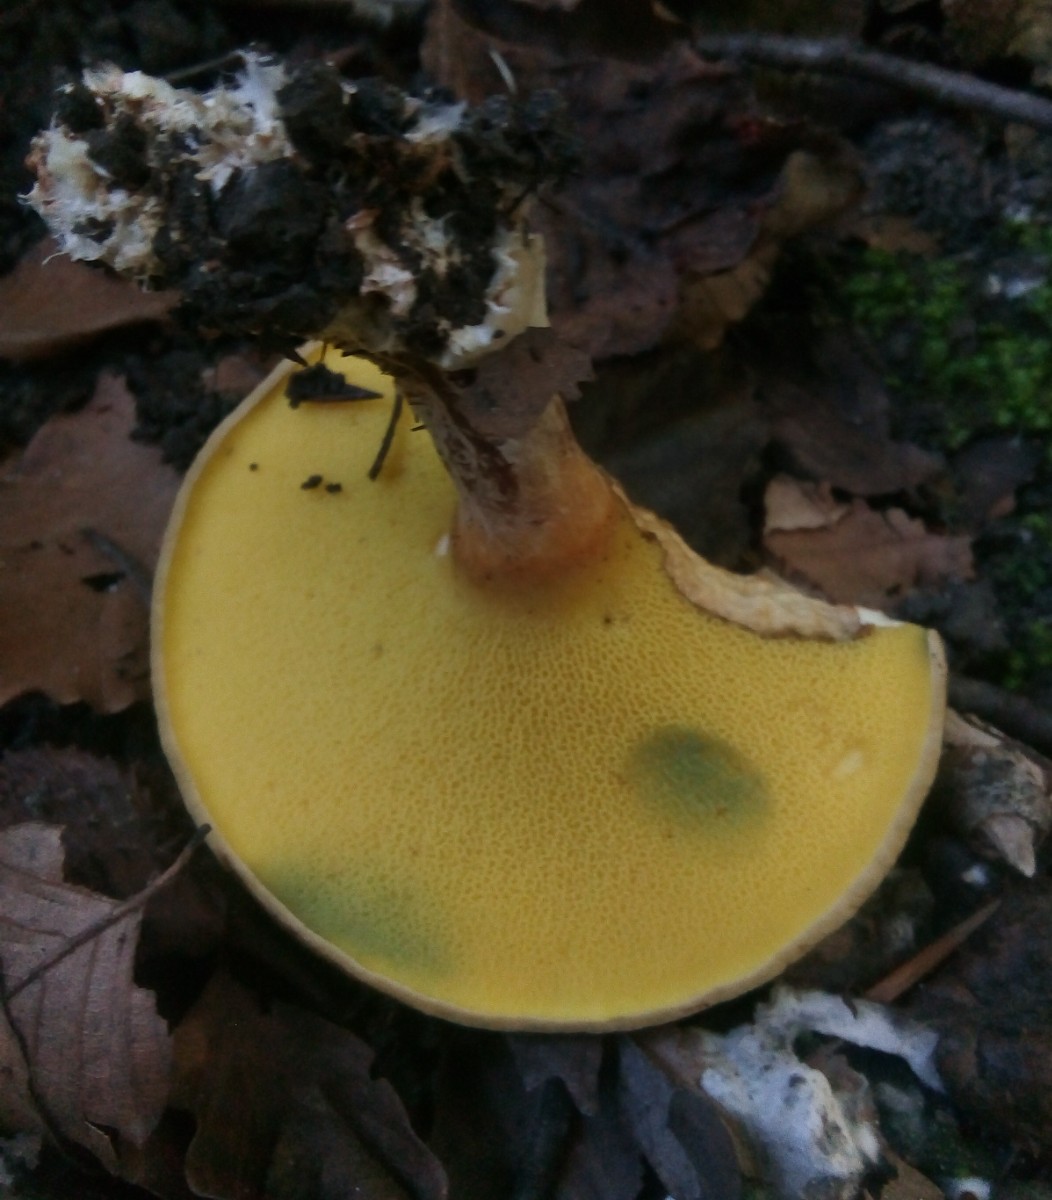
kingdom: Fungi
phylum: Basidiomycota
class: Agaricomycetes
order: Boletales
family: Paxillaceae
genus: Gyrodon
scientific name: Gyrodon lividus
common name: ellerørhat
